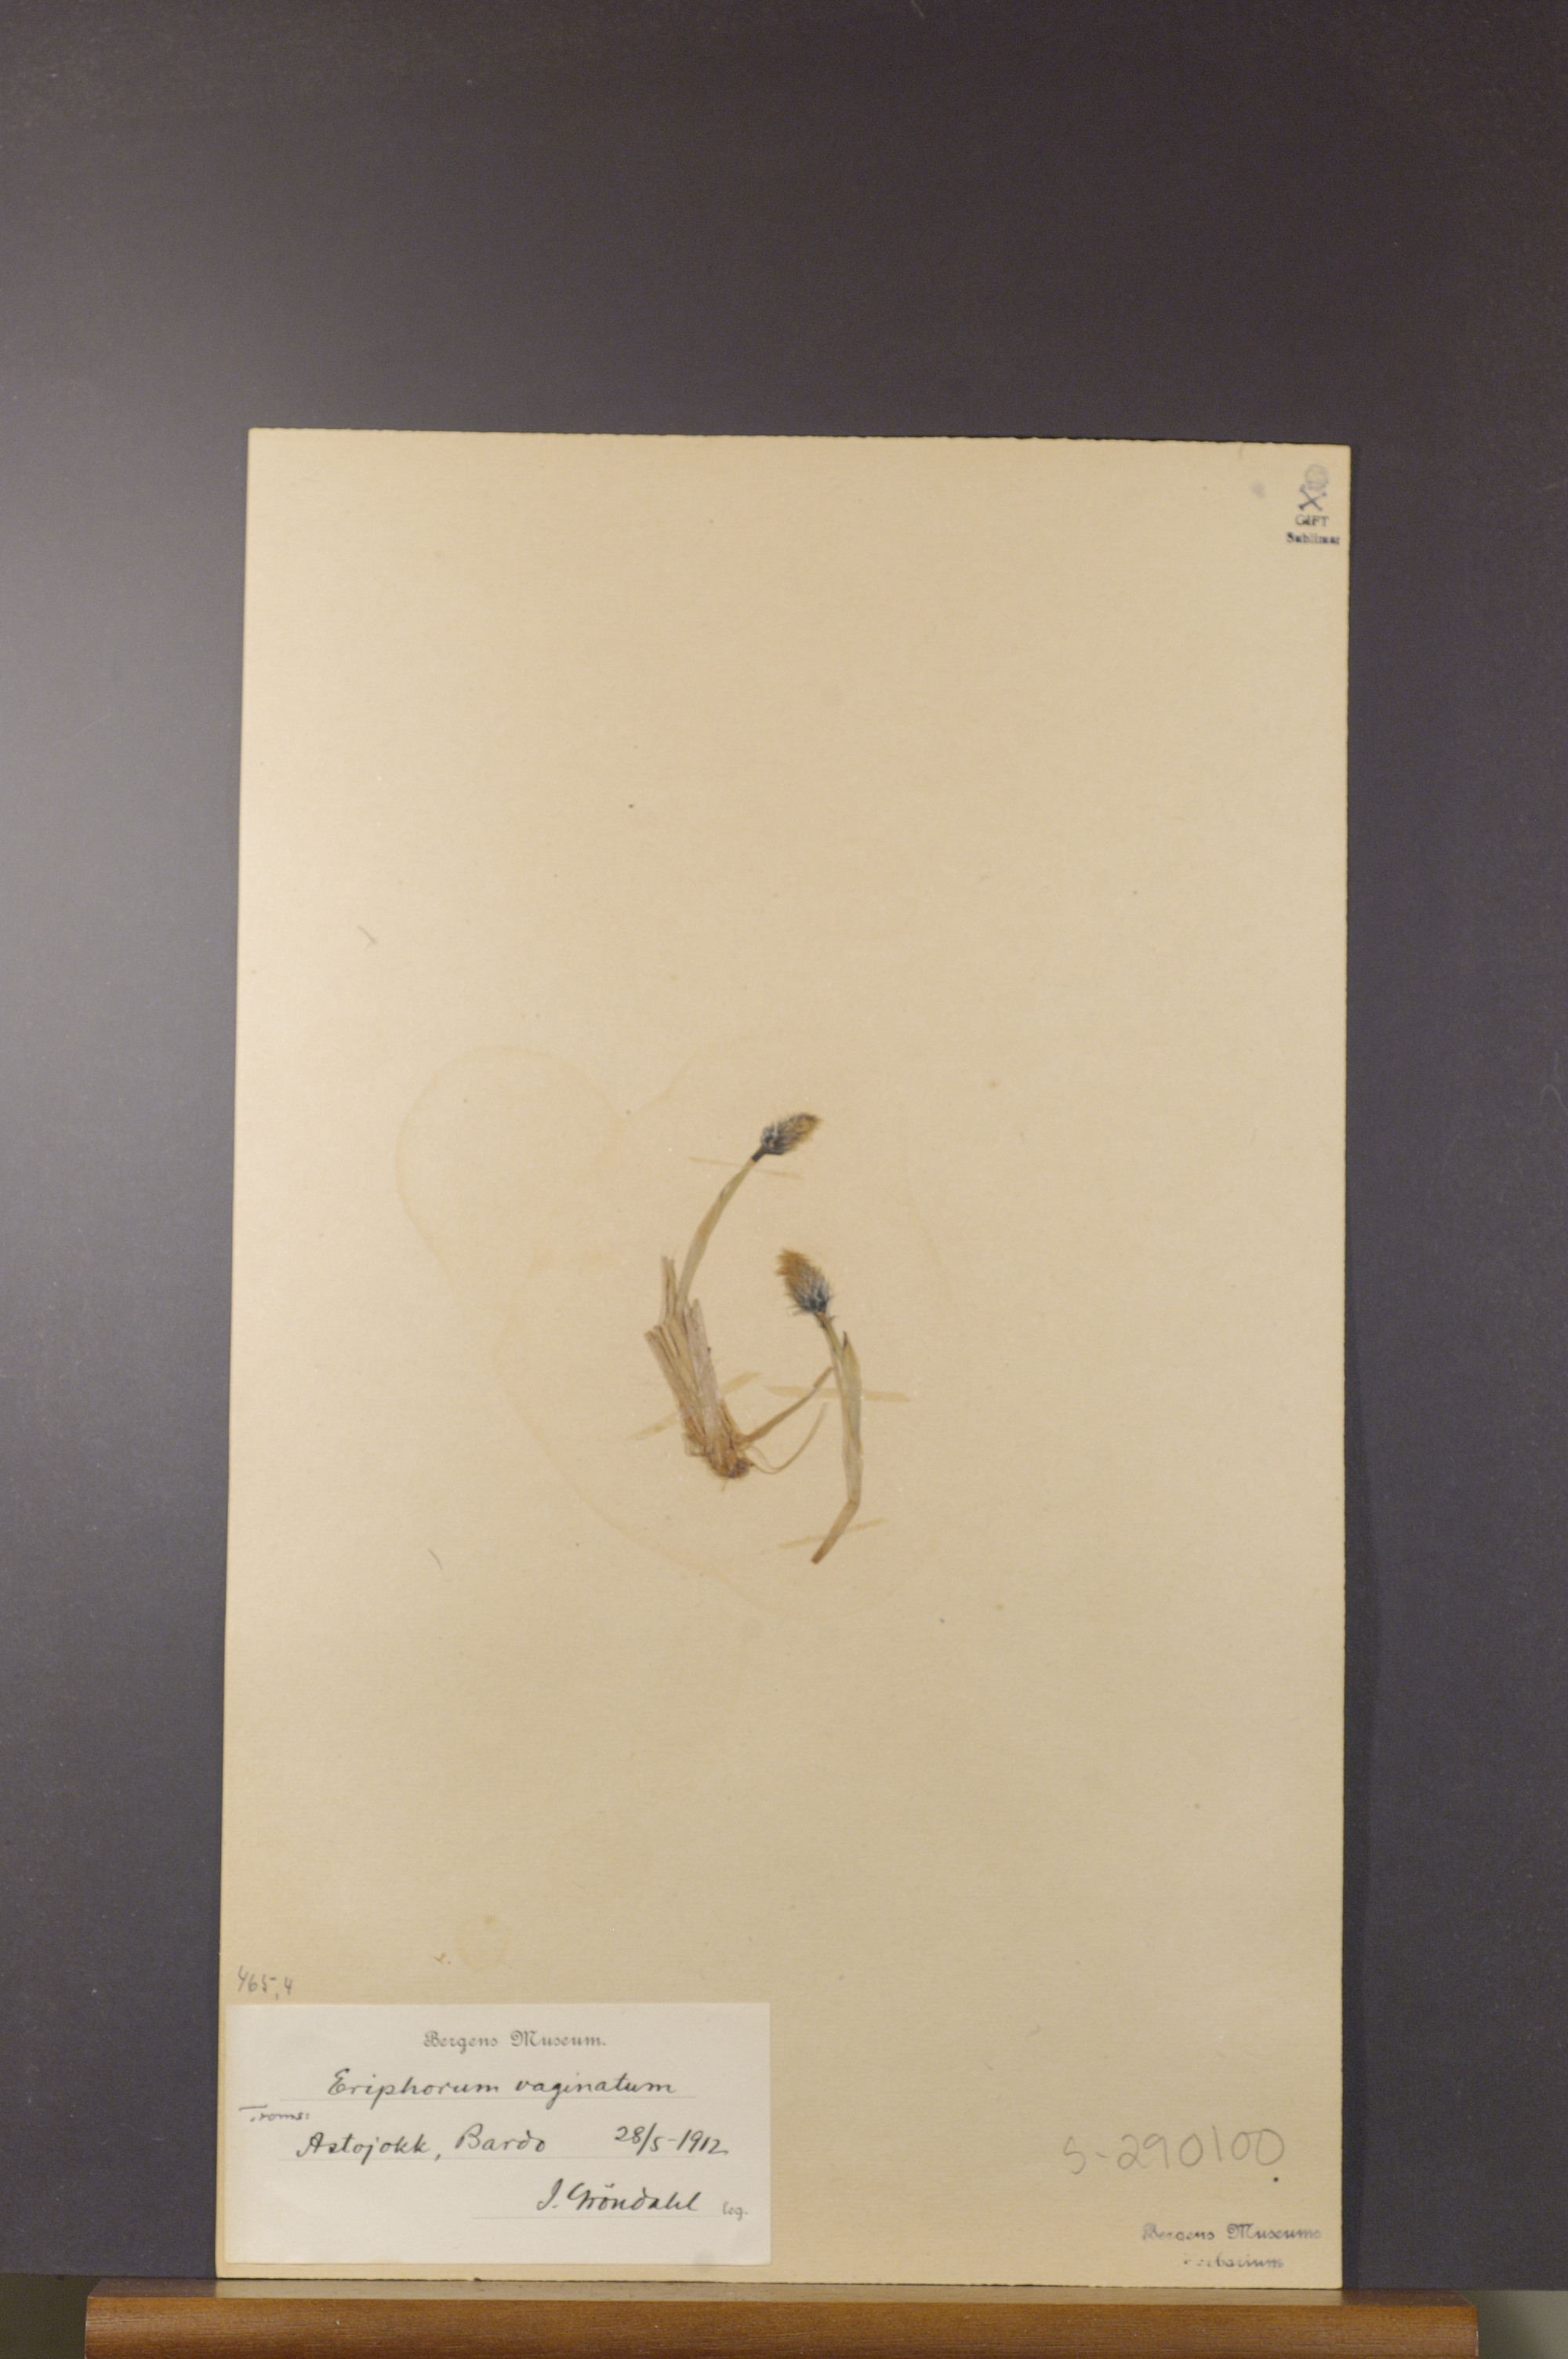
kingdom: Plantae
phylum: Tracheophyta
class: Liliopsida
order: Poales
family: Cyperaceae
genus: Eriophorum
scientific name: Eriophorum vaginatum
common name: Hare's-tail cottongrass
